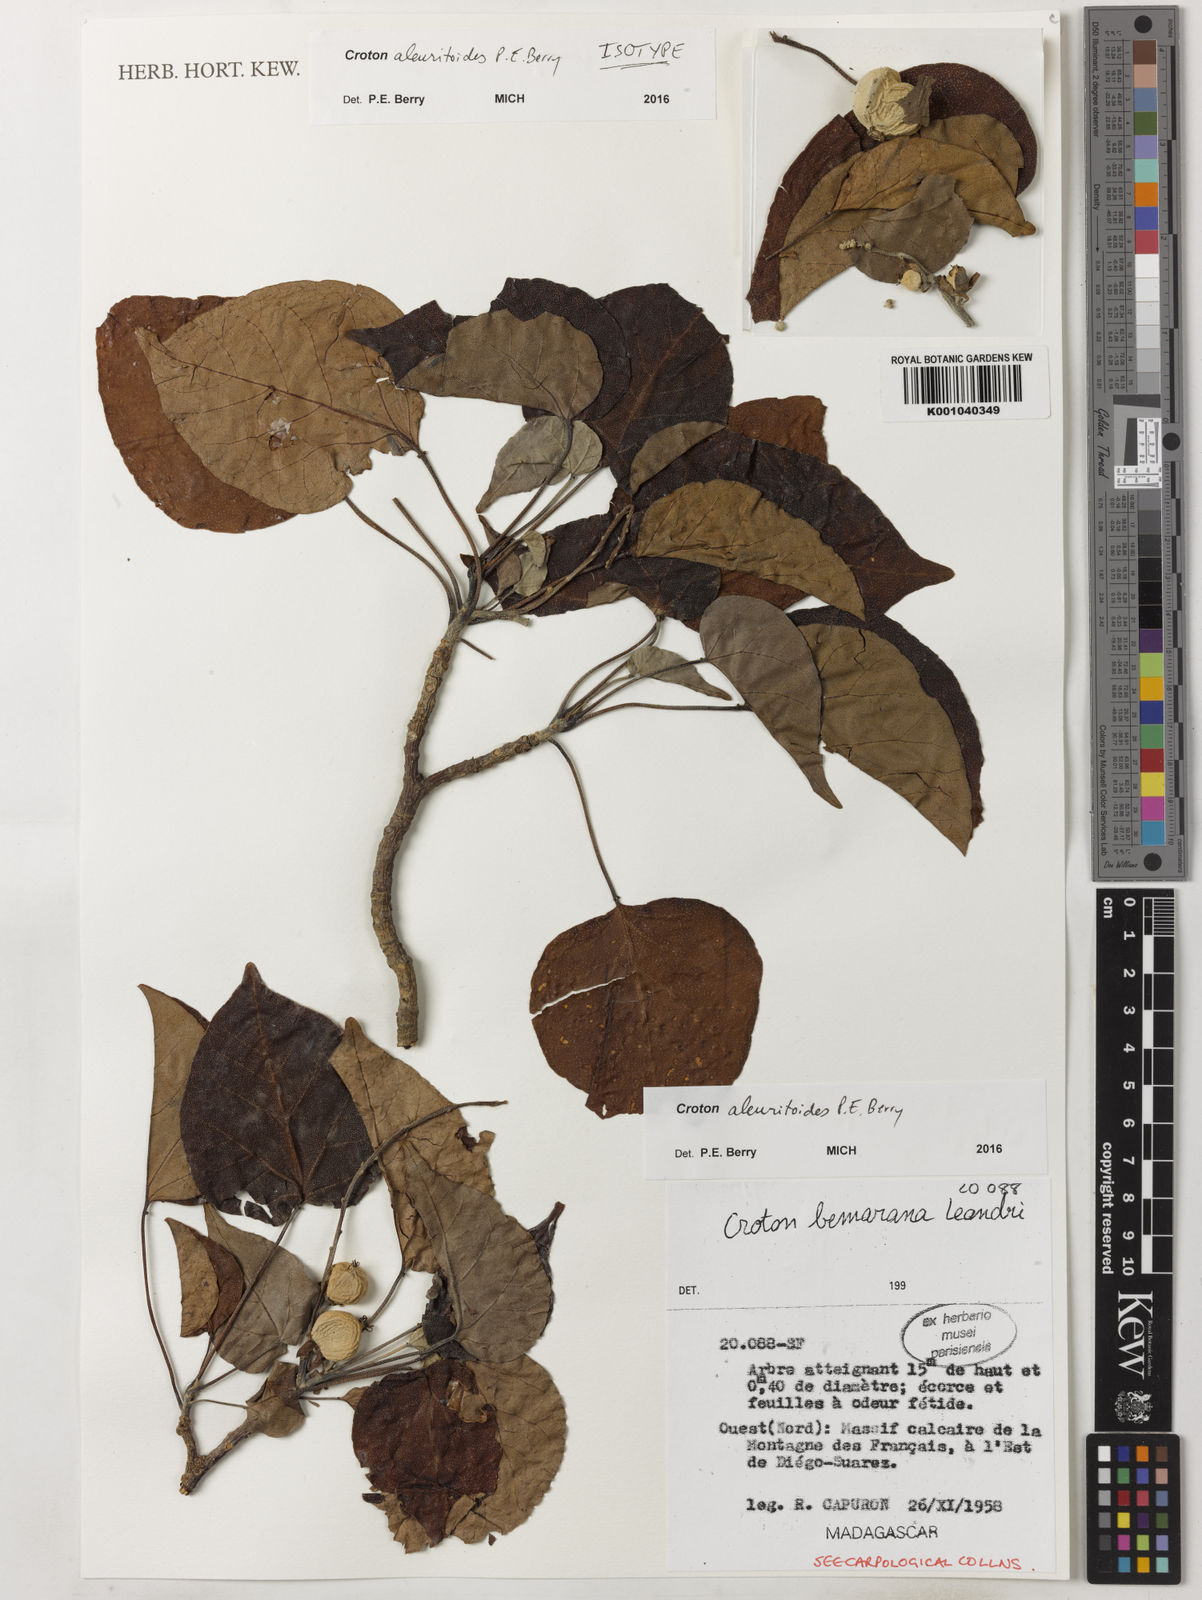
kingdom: Plantae
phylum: Tracheophyta
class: Magnoliopsida
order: Malpighiales
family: Euphorbiaceae
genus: Croton
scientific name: Croton aleuritoides
